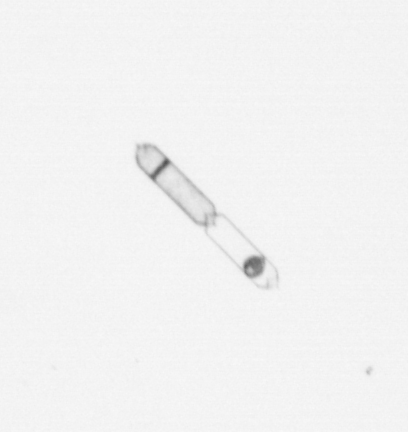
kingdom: Chromista
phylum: Ochrophyta
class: Bacillariophyceae
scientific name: Bacillariophyceae
